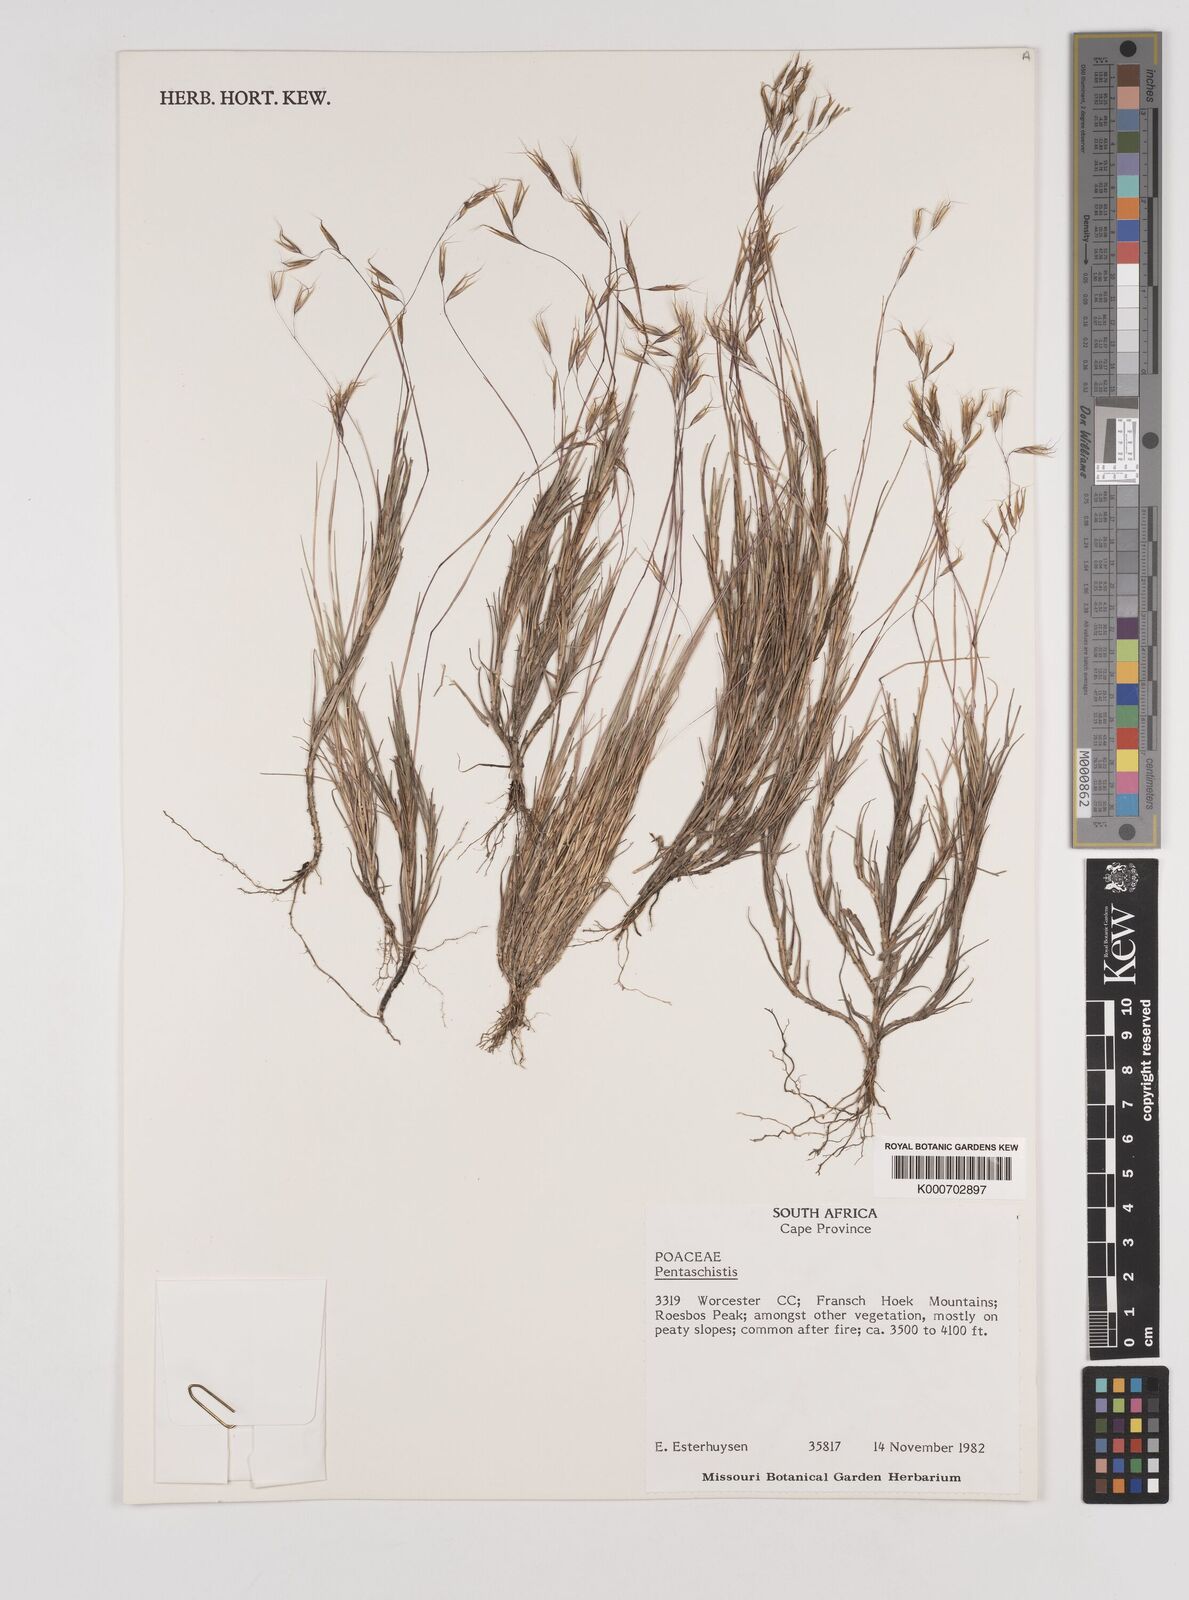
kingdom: Plantae
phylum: Tracheophyta
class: Liliopsida
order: Poales
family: Poaceae
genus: Pentameris
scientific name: Pentameris barbata
